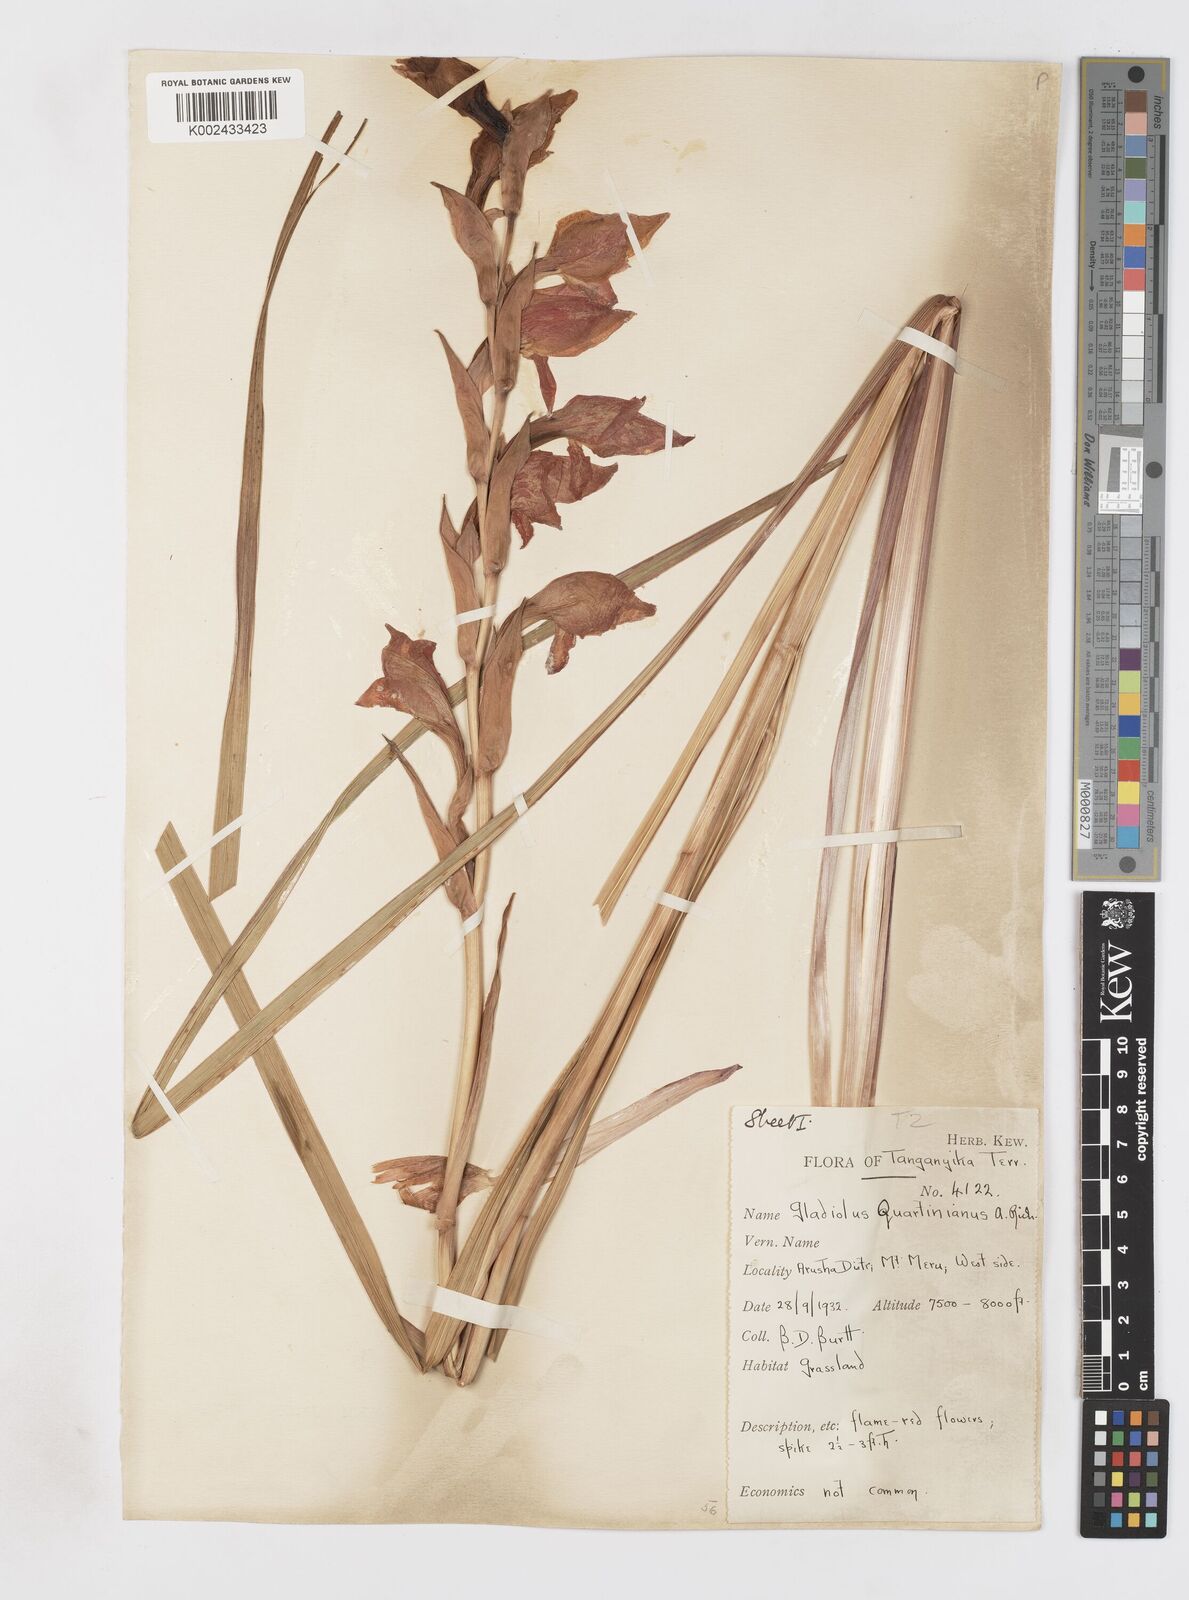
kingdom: Plantae
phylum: Tracheophyta
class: Liliopsida
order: Asparagales
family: Iridaceae
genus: Gladiolus
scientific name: Gladiolus dalenii
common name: Cornflag
